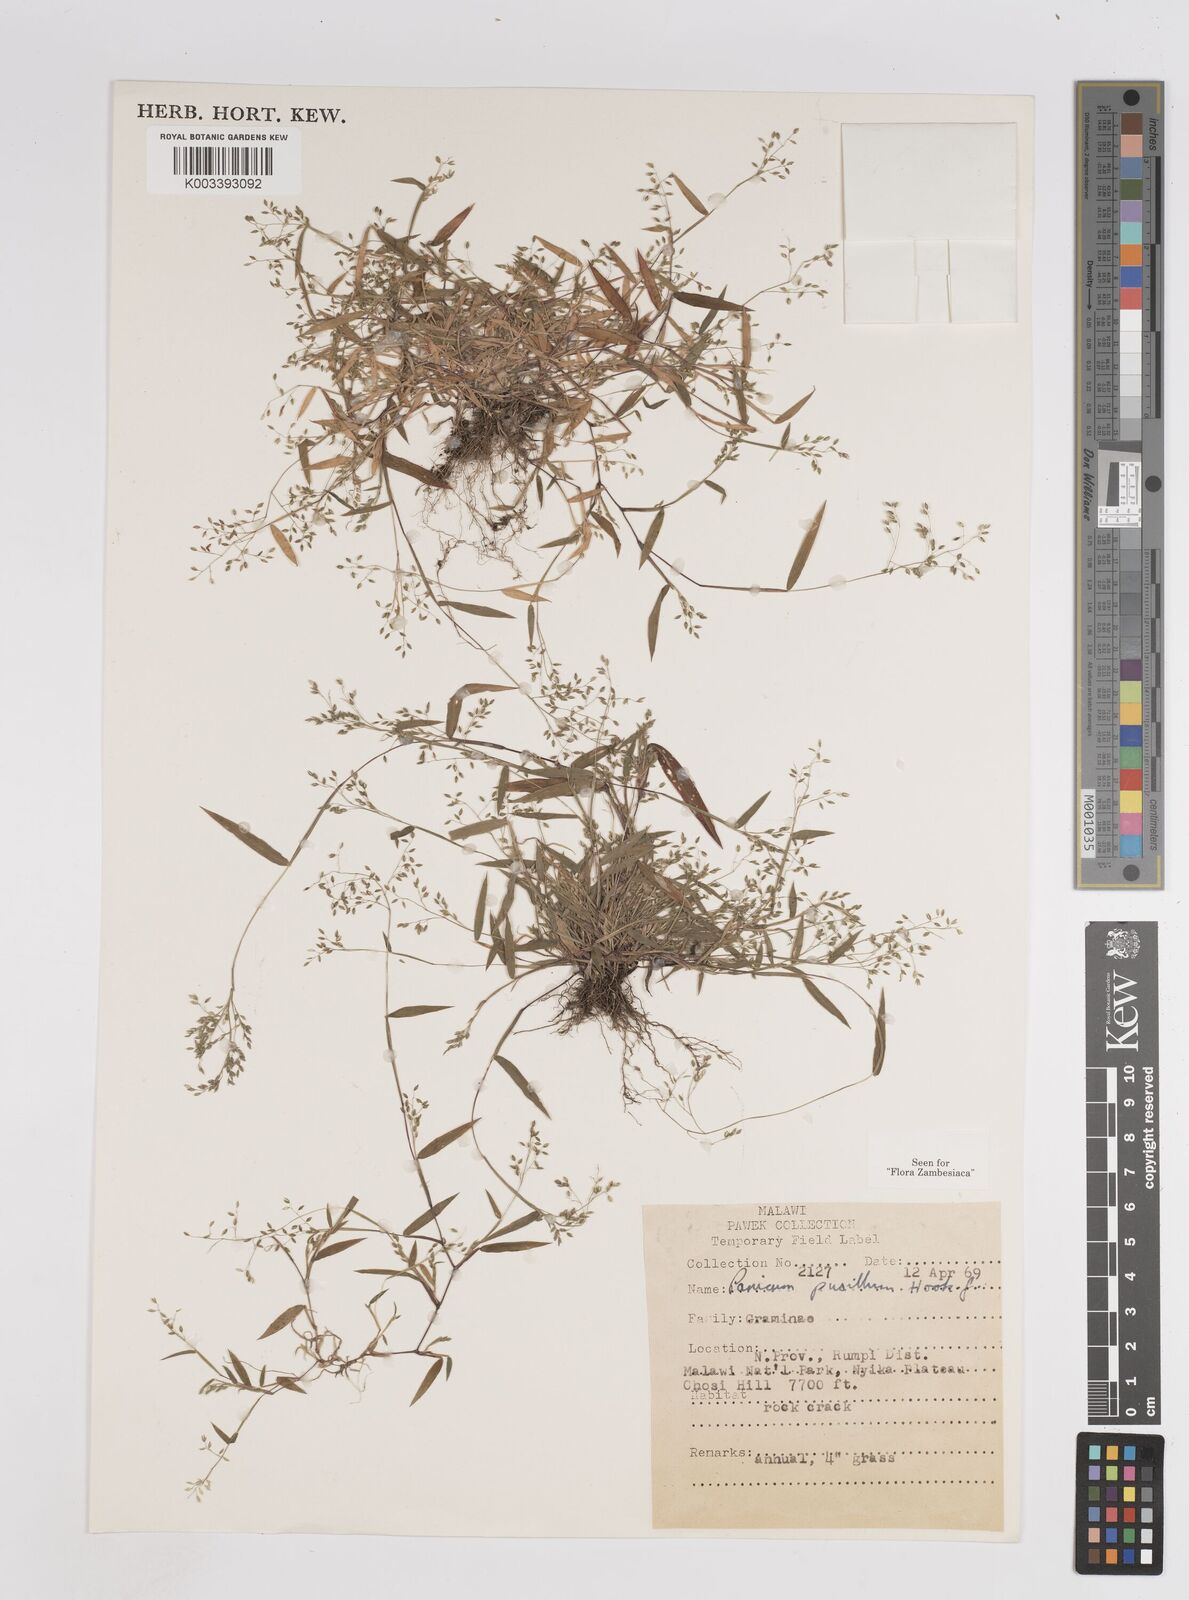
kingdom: Plantae
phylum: Tracheophyta
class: Liliopsida
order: Poales
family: Poaceae
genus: Panicum
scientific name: Panicum pusillum
